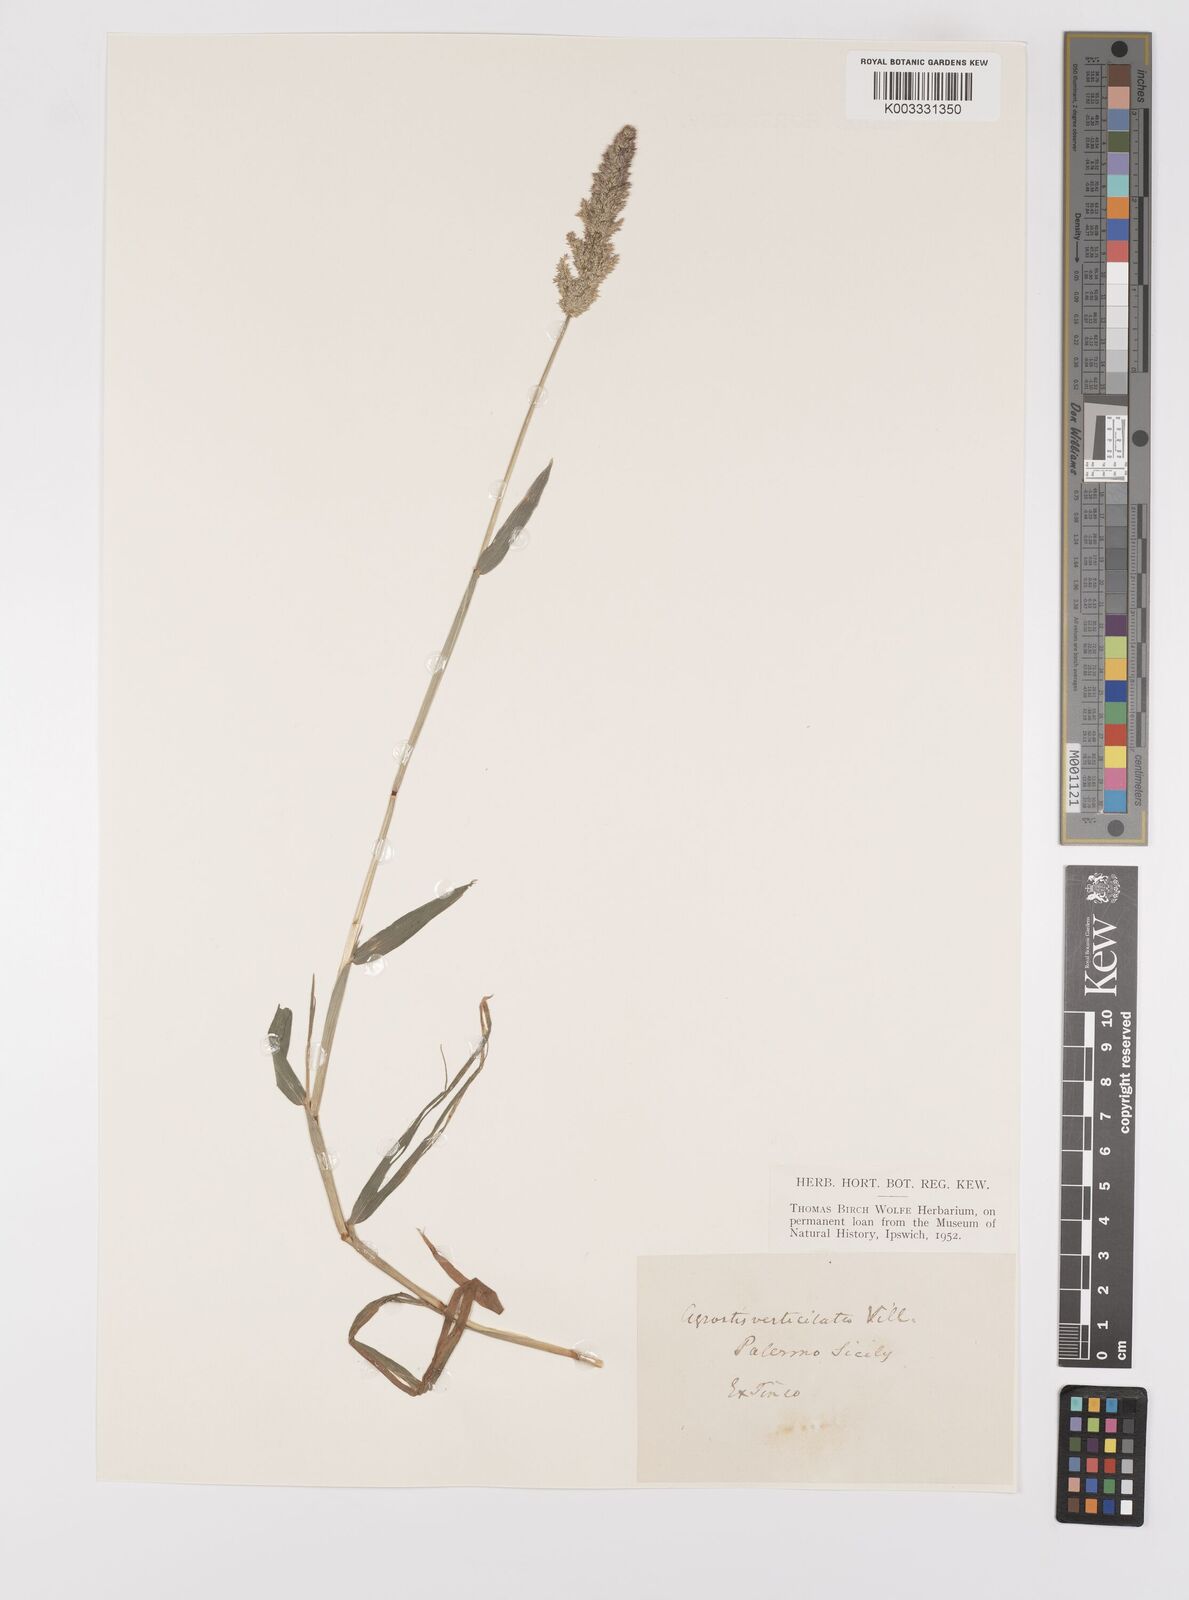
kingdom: Plantae
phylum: Tracheophyta
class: Liliopsida
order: Poales
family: Poaceae
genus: Polypogon
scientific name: Polypogon viridis
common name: Water bent
